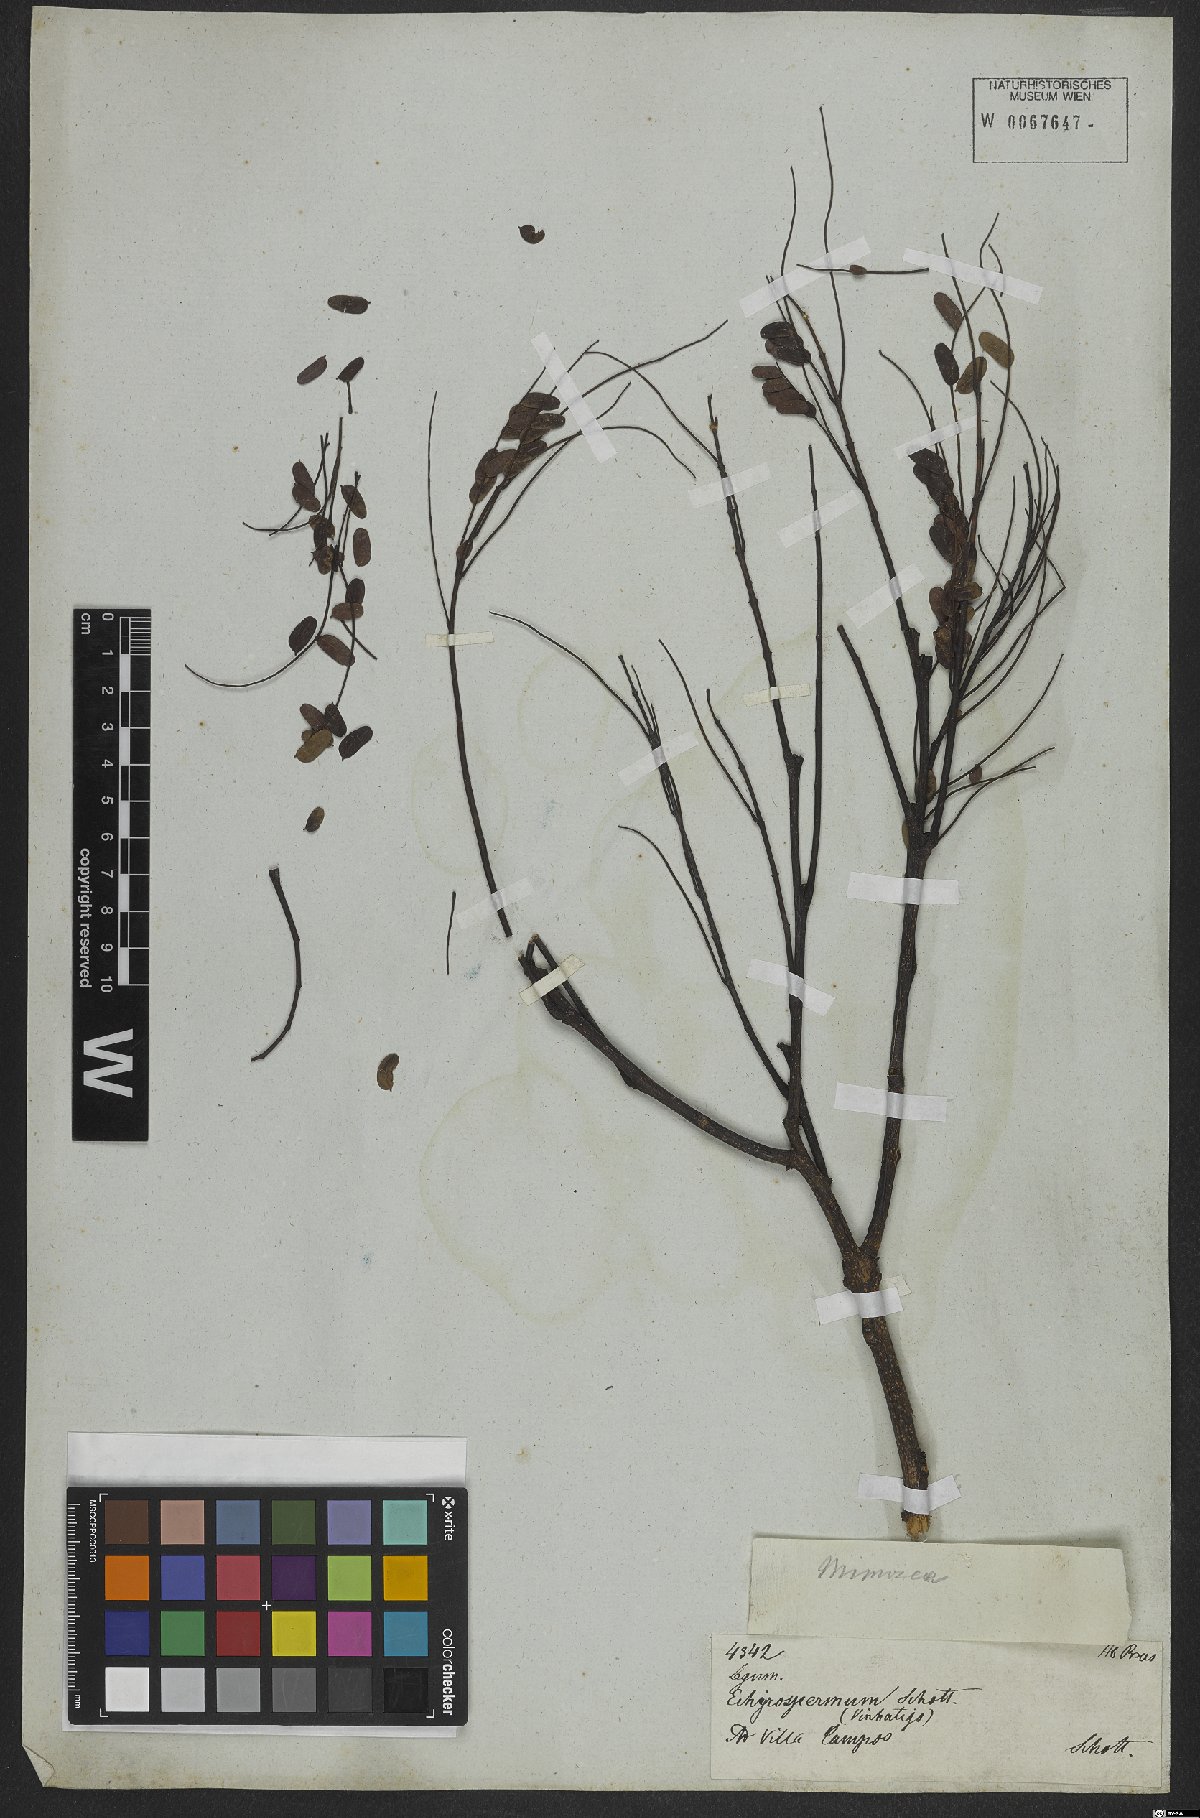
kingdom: Plantae
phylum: Tracheophyta
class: Magnoliopsida
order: Fabales
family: Fabaceae
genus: Caesalpinia
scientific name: Caesalpinia
